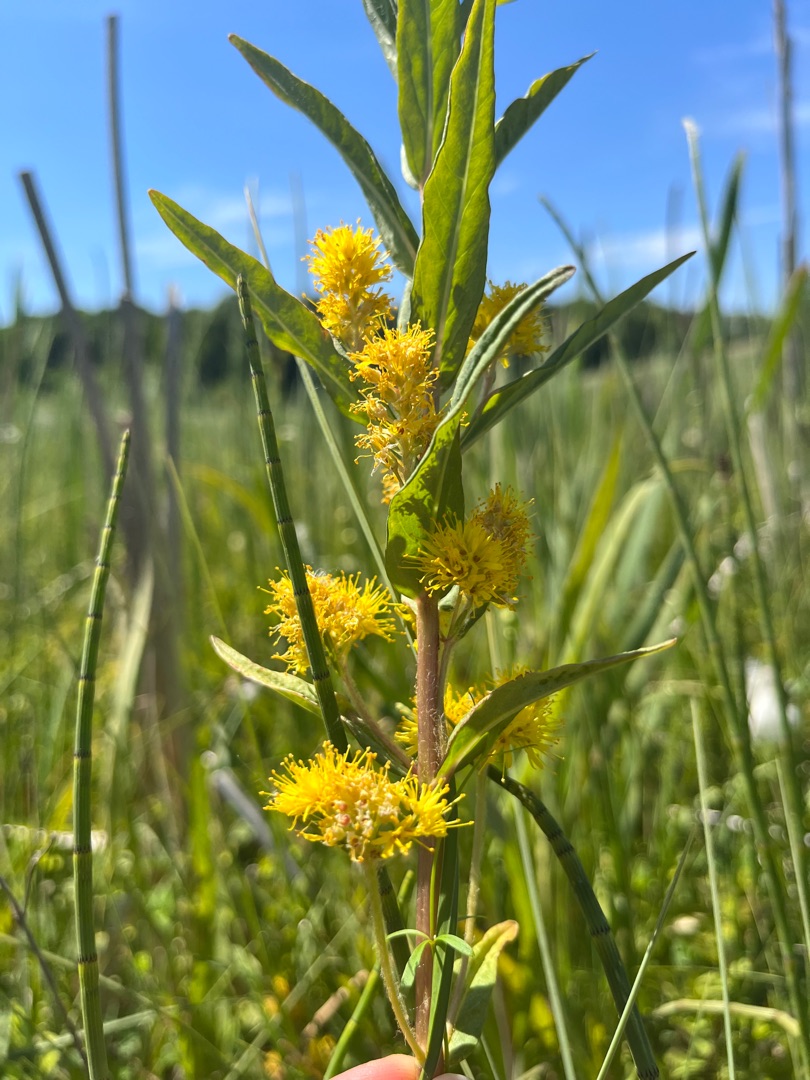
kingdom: Plantae
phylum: Tracheophyta
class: Magnoliopsida
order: Ericales
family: Primulaceae
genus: Lysimachia
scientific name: Lysimachia thyrsiflora
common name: Dusk-fredløs
